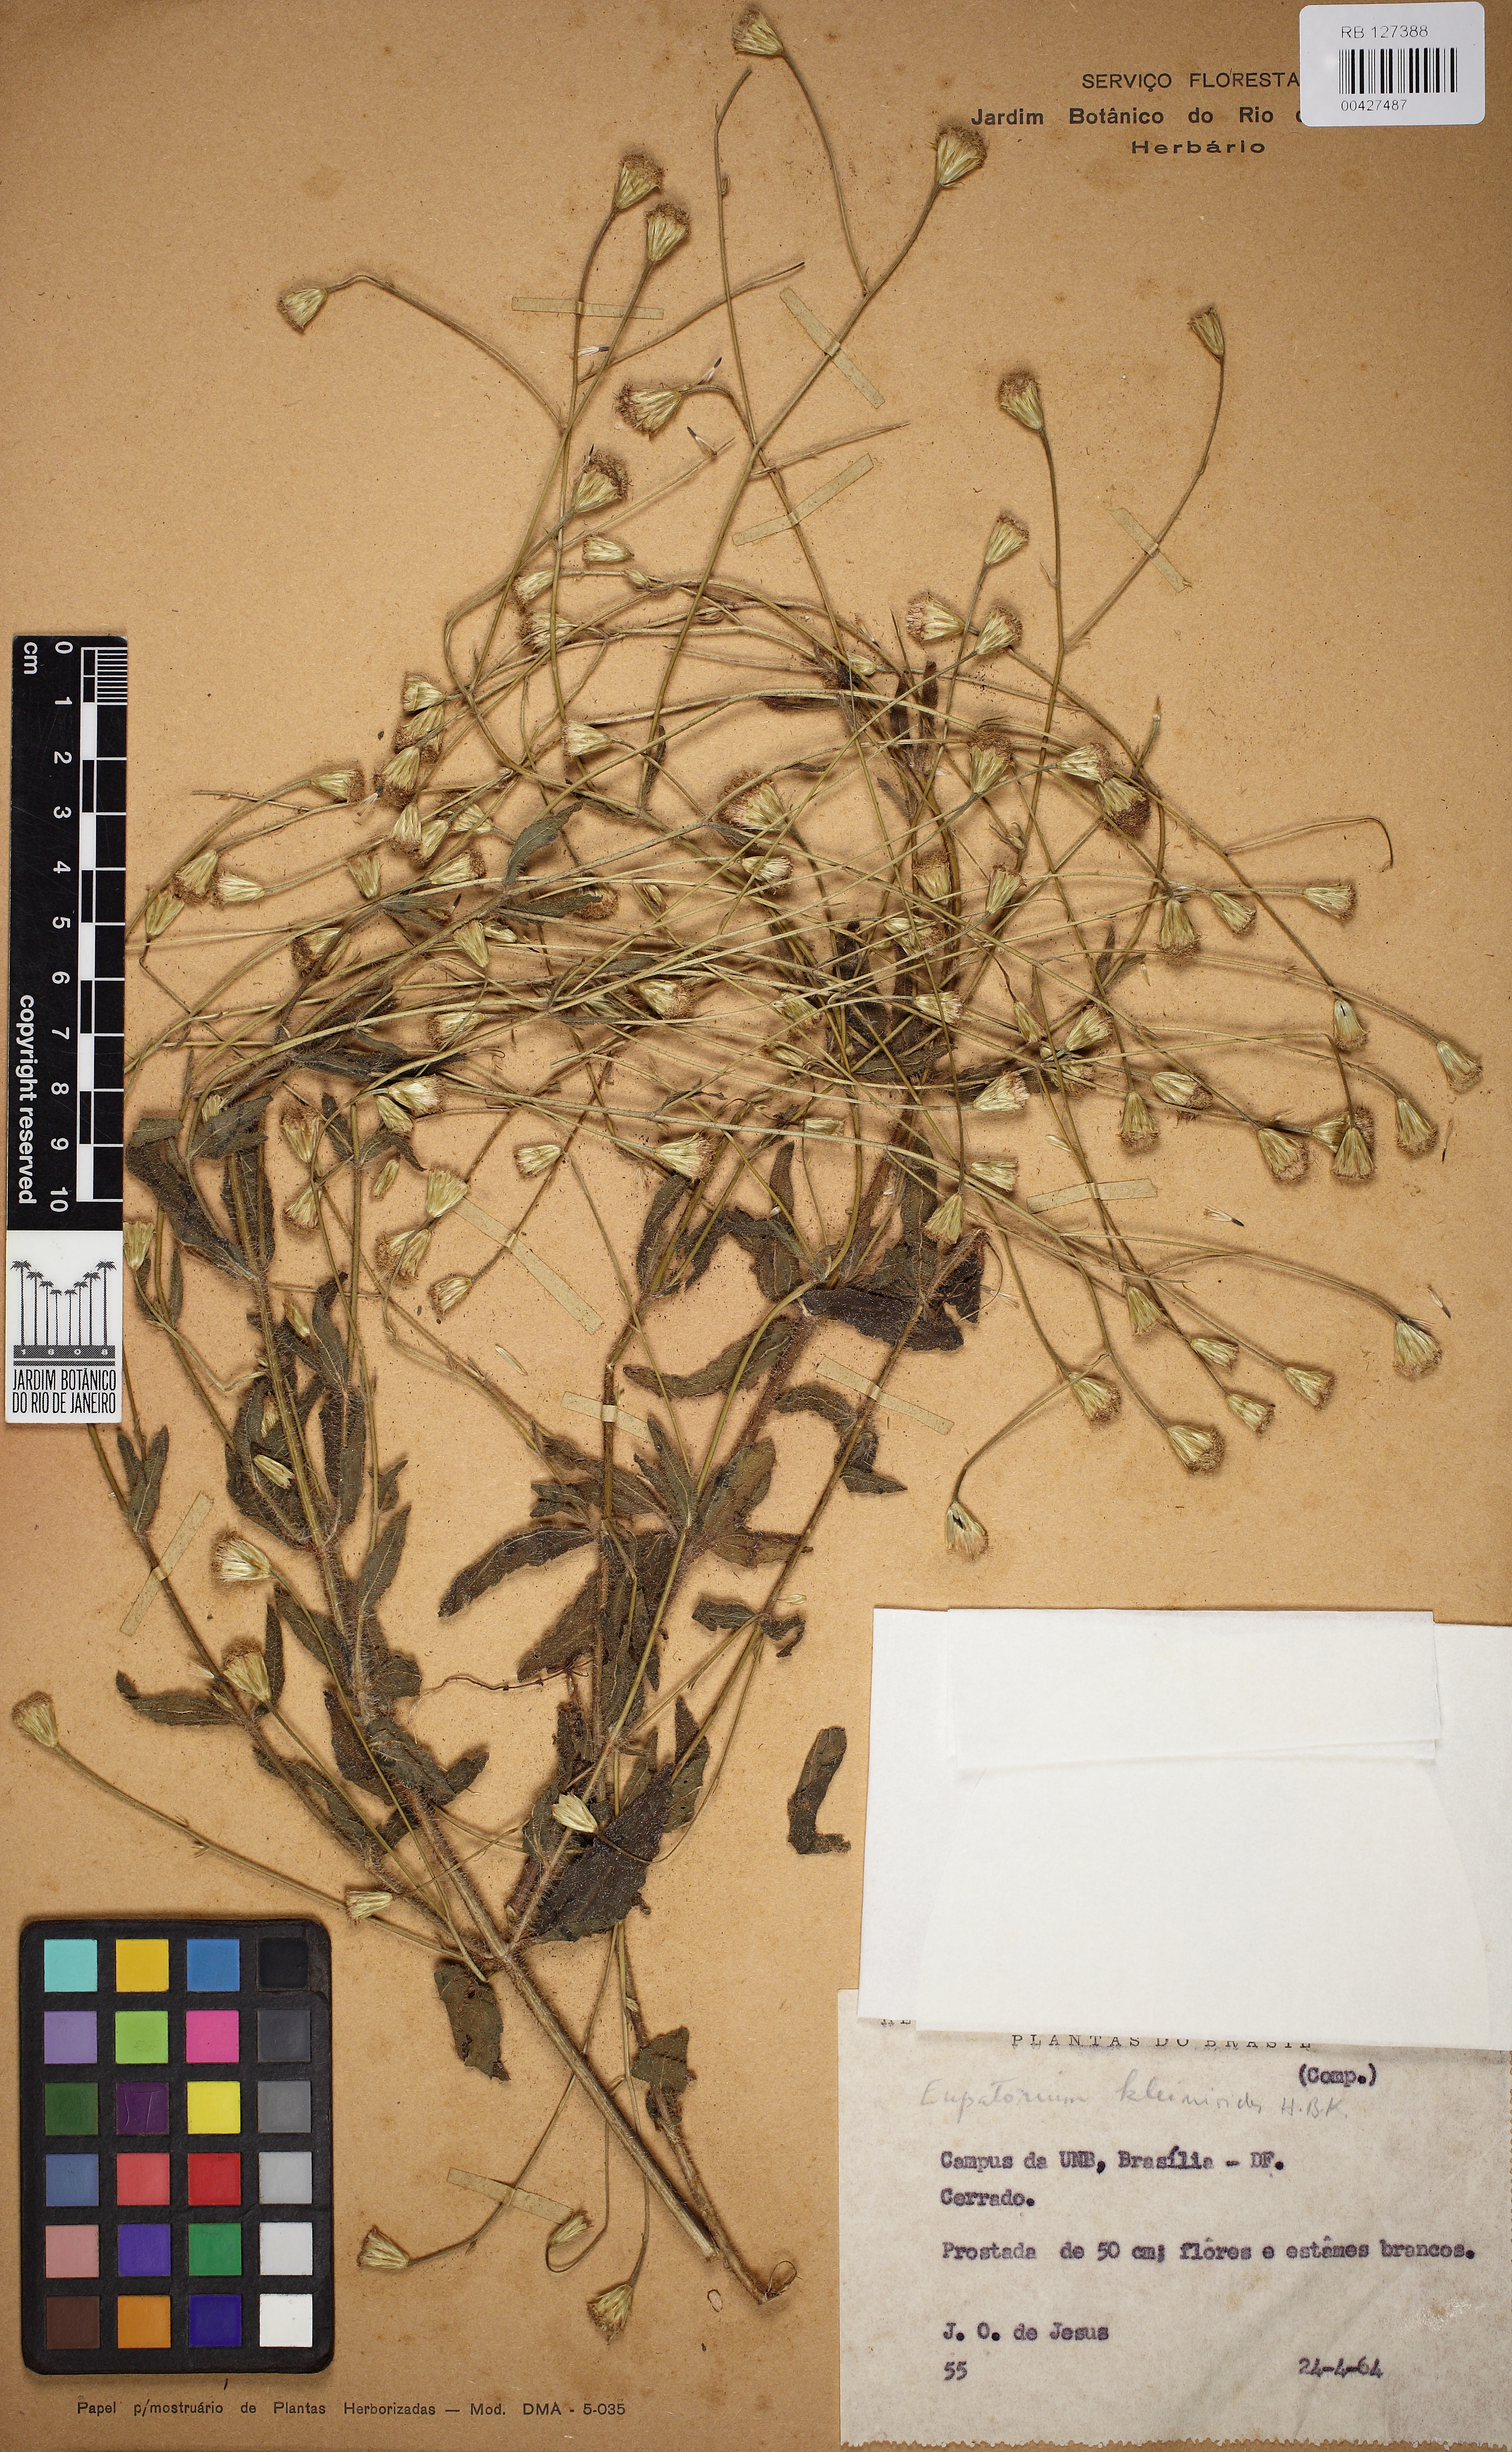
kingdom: Plantae
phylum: Tracheophyta
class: Magnoliopsida
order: Asterales
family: Asteraceae
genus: Praxelis
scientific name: Praxelis kleinioides
